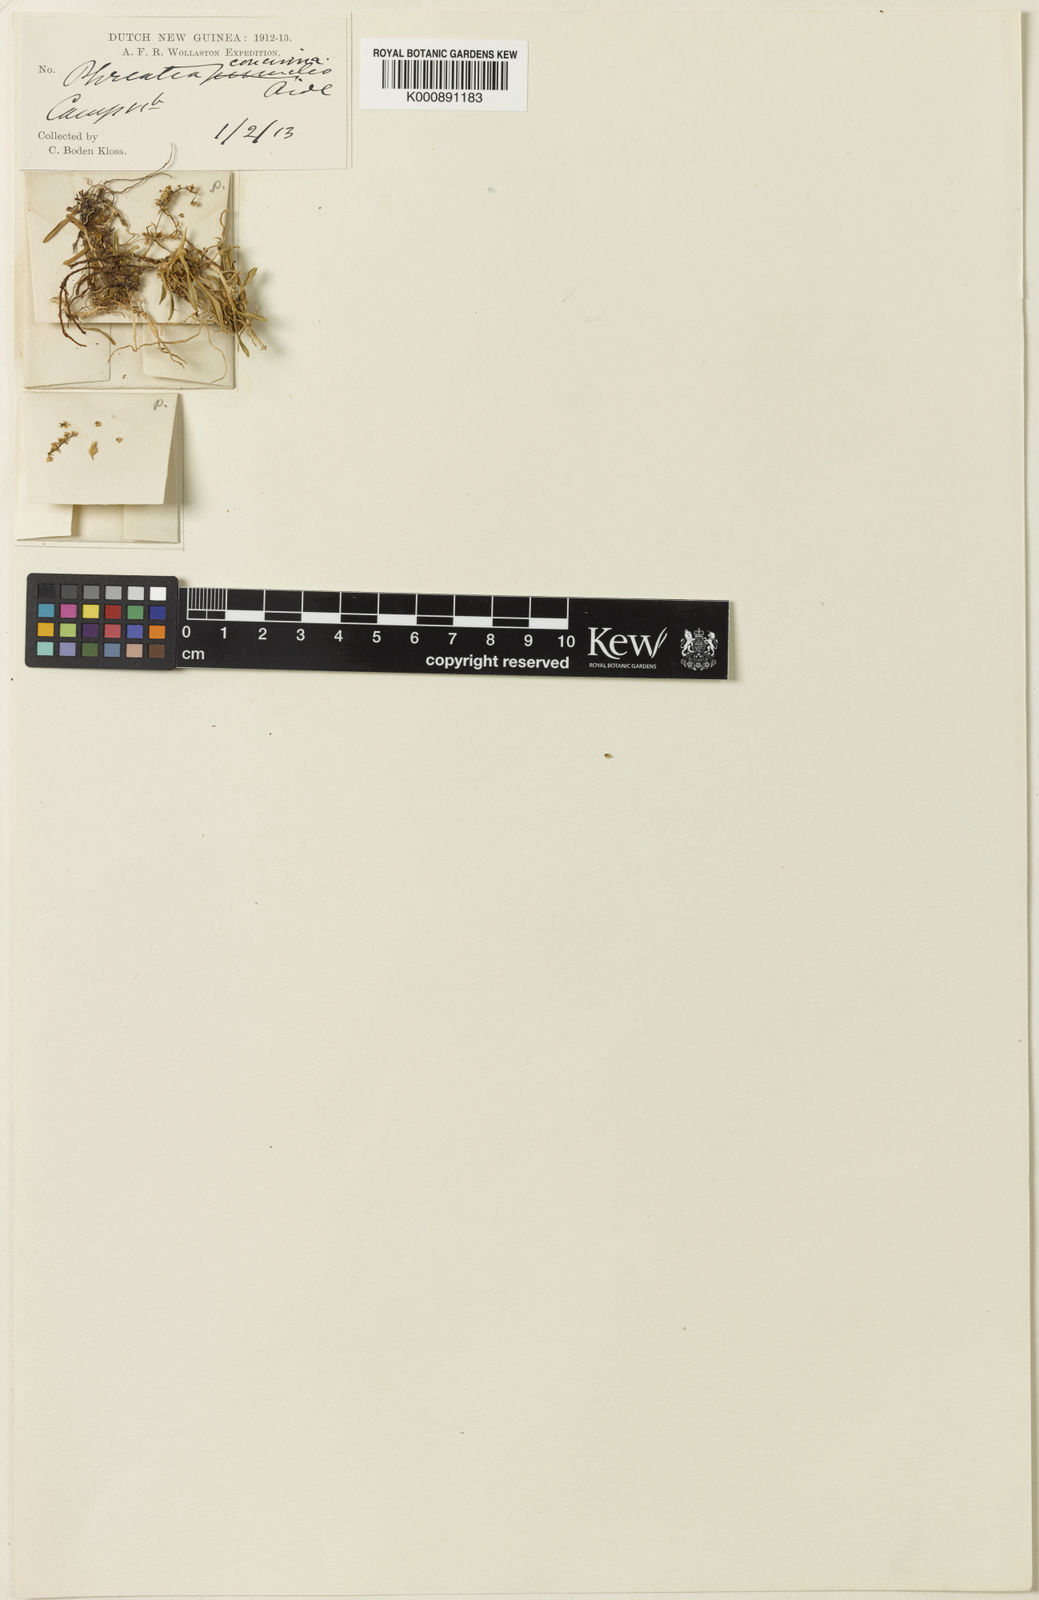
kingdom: Plantae
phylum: Tracheophyta
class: Liliopsida
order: Asparagales
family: Orchidaceae
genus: Phreatia
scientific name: Phreatia concinna
